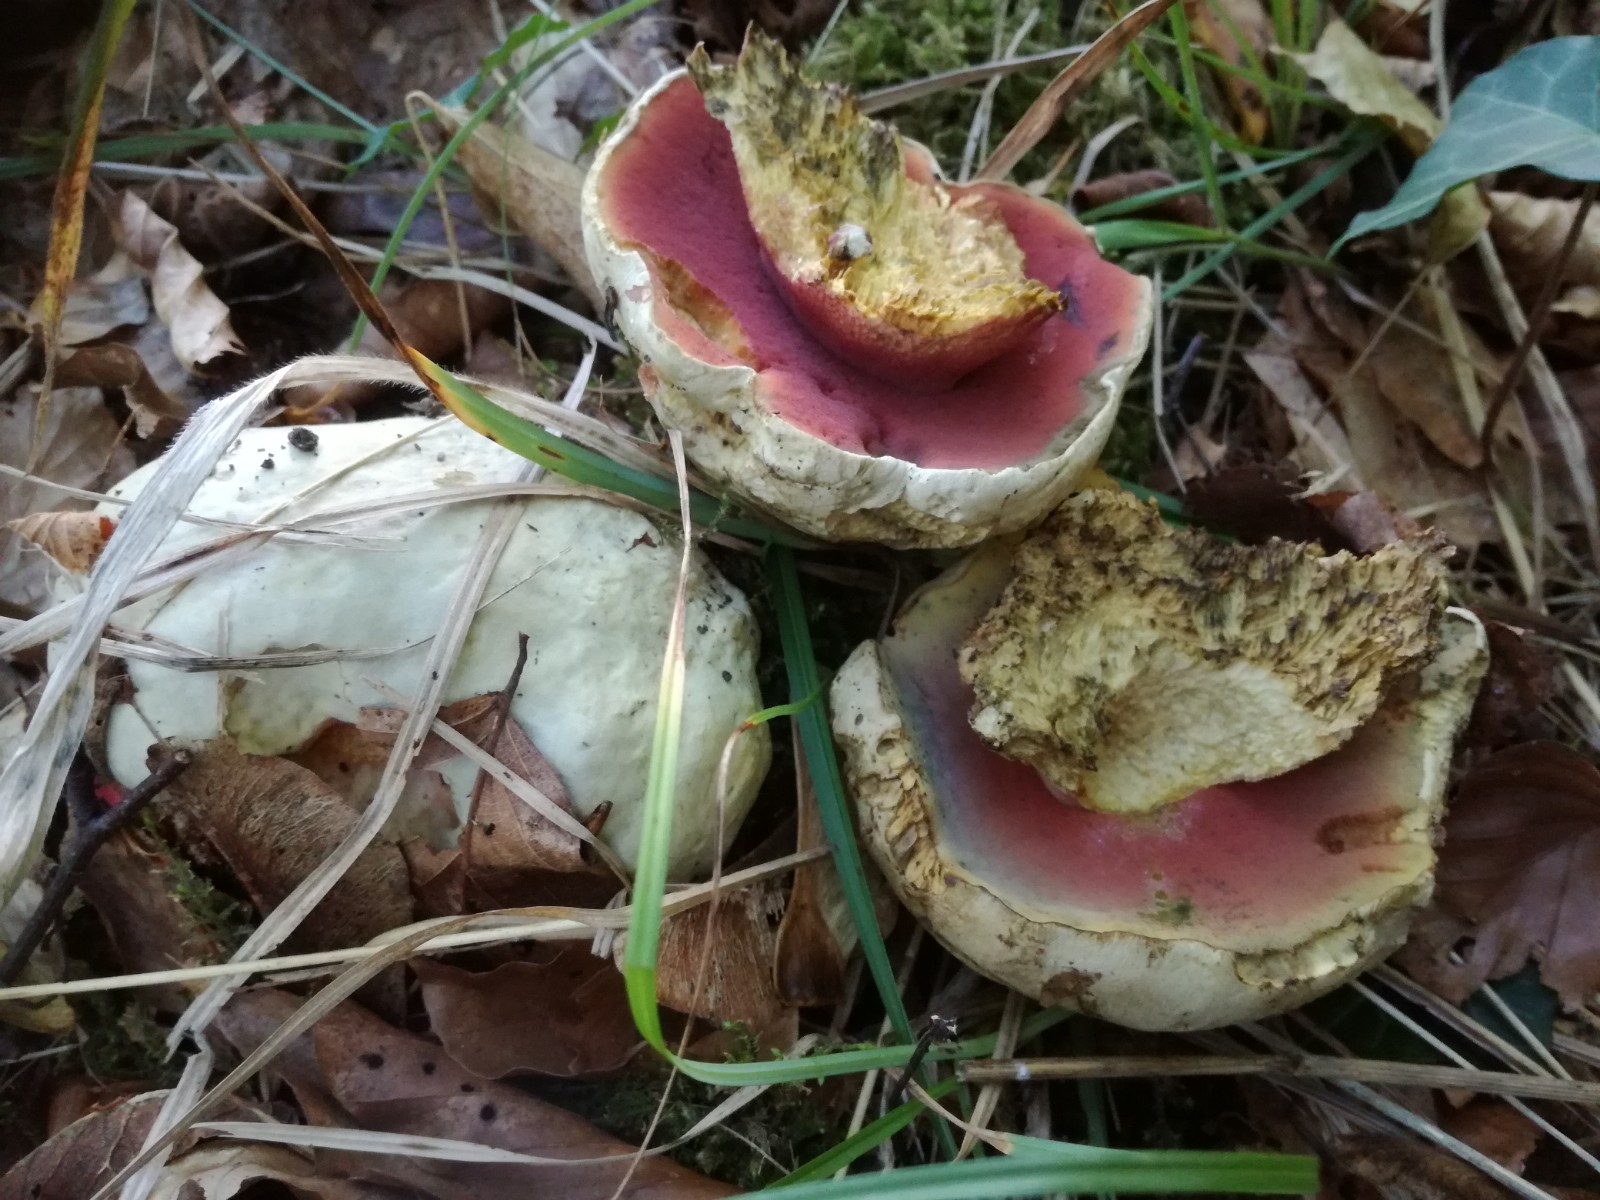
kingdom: Fungi
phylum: Basidiomycota
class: Agaricomycetes
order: Boletales
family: Boletaceae
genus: Rubroboletus
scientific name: Rubroboletus satanas
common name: Satans rørhat
